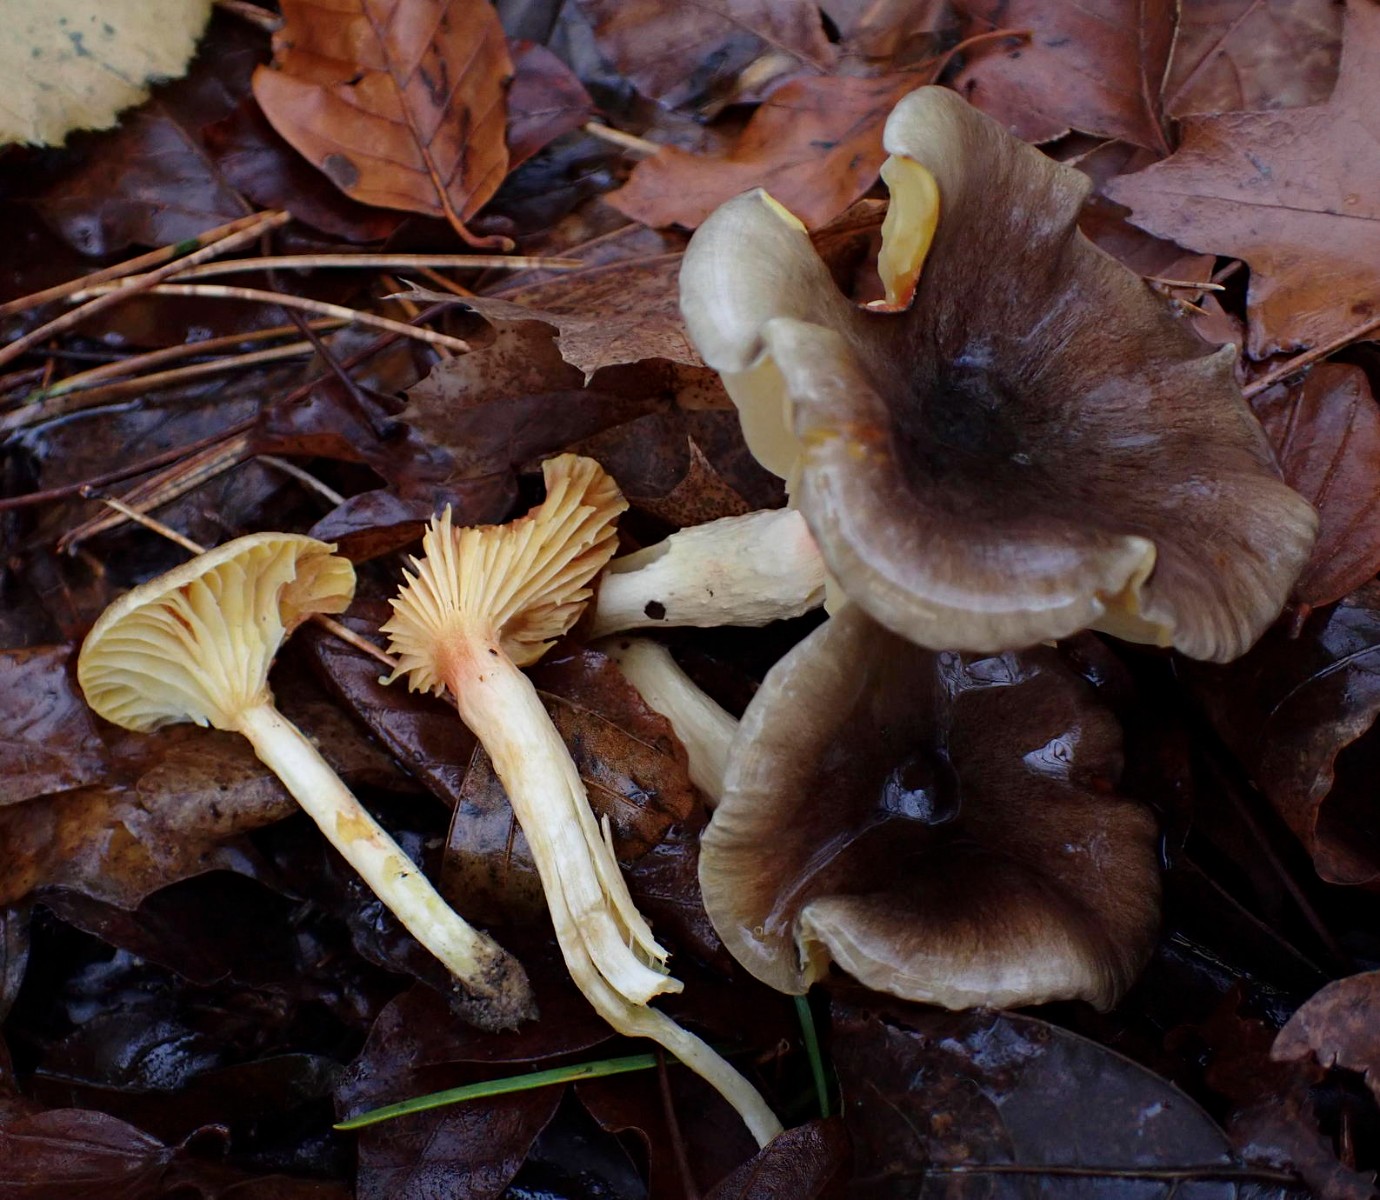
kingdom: Fungi
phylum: Basidiomycota
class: Agaricomycetes
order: Agaricales
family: Hygrophoraceae
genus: Hygrophorus
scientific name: Hygrophorus hypothejus
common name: frost-sneglehat
